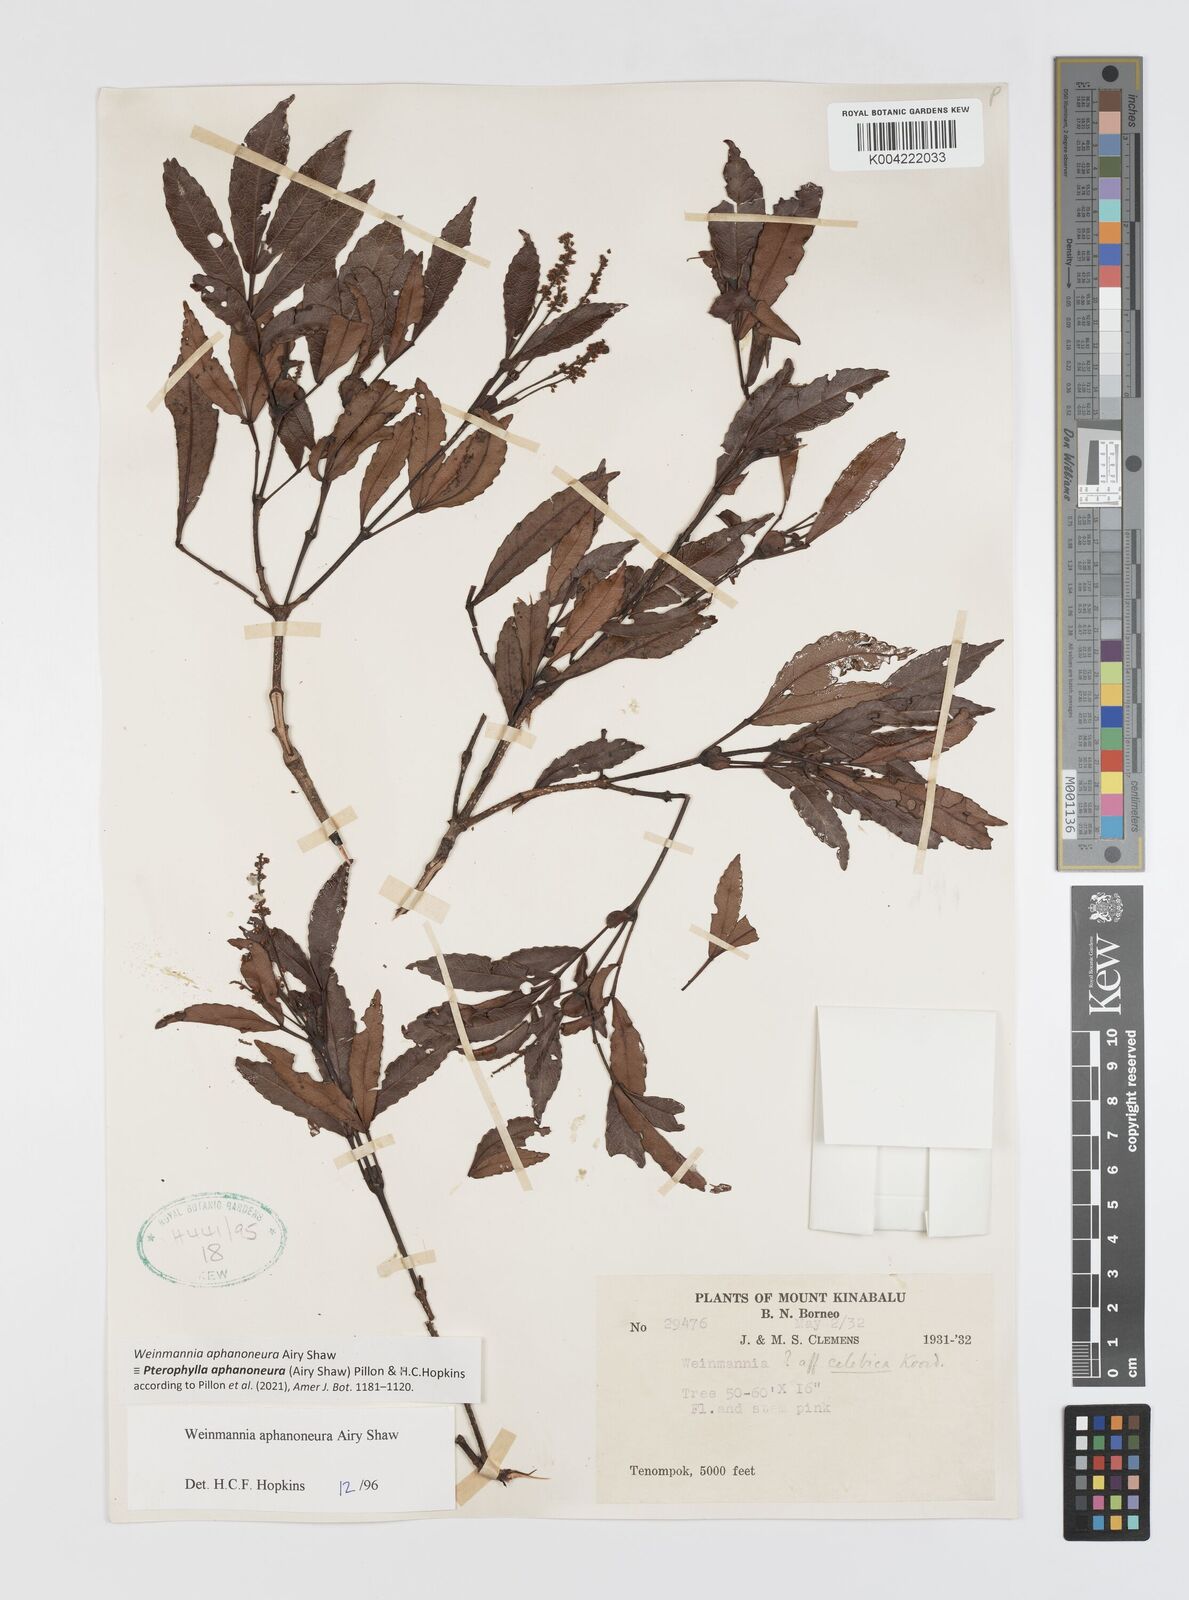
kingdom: Plantae
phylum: Tracheophyta
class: Magnoliopsida
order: Oxalidales
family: Cunoniaceae
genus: Pterophylla
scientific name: Pterophylla aphanoneura
